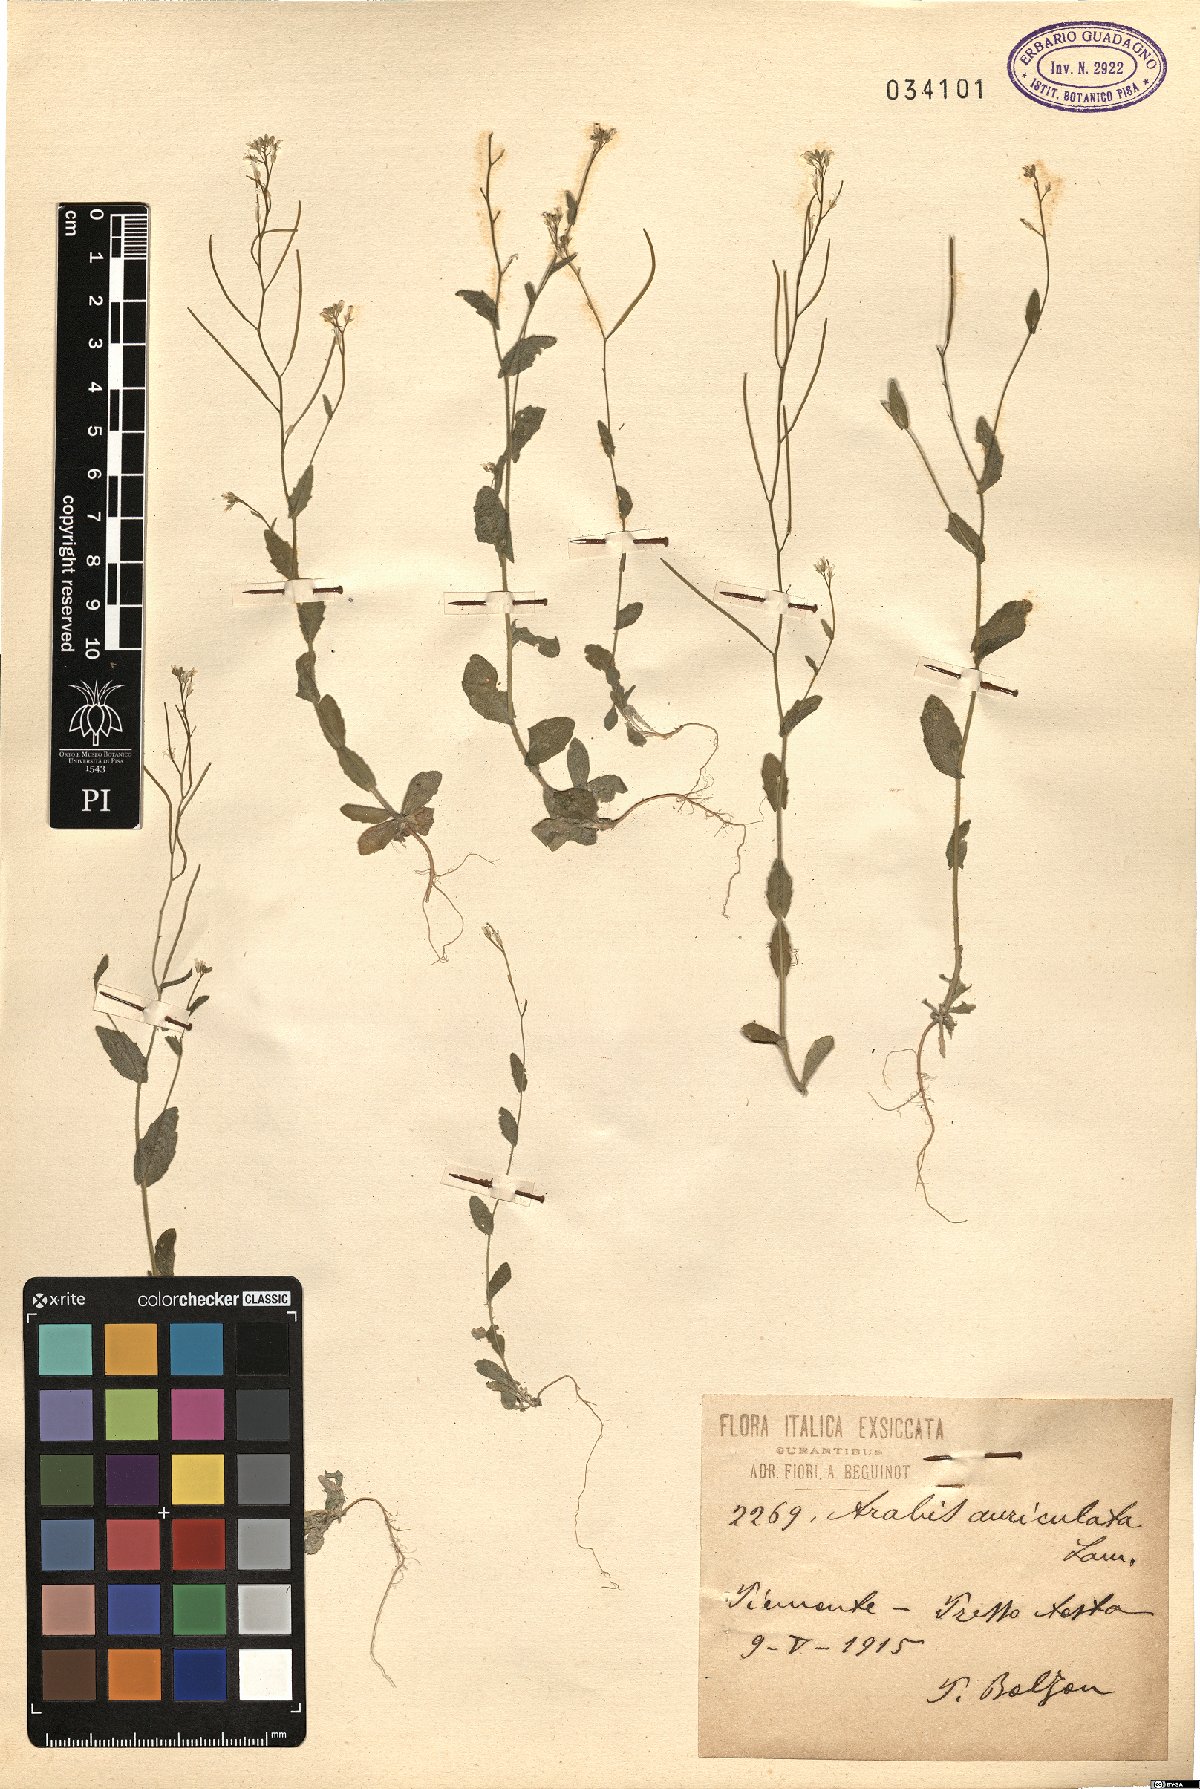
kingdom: Plantae
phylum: Tracheophyta
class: Magnoliopsida
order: Brassicales
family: Brassicaceae
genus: Arabis
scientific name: Arabis auriculata
